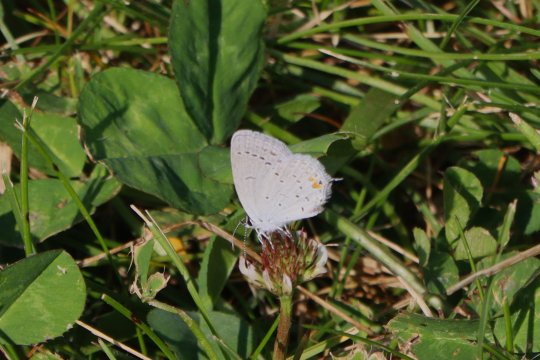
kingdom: Animalia
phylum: Arthropoda
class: Insecta
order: Lepidoptera
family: Lycaenidae
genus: Elkalyce
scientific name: Elkalyce comyntas
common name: Eastern Tailed-Blue
